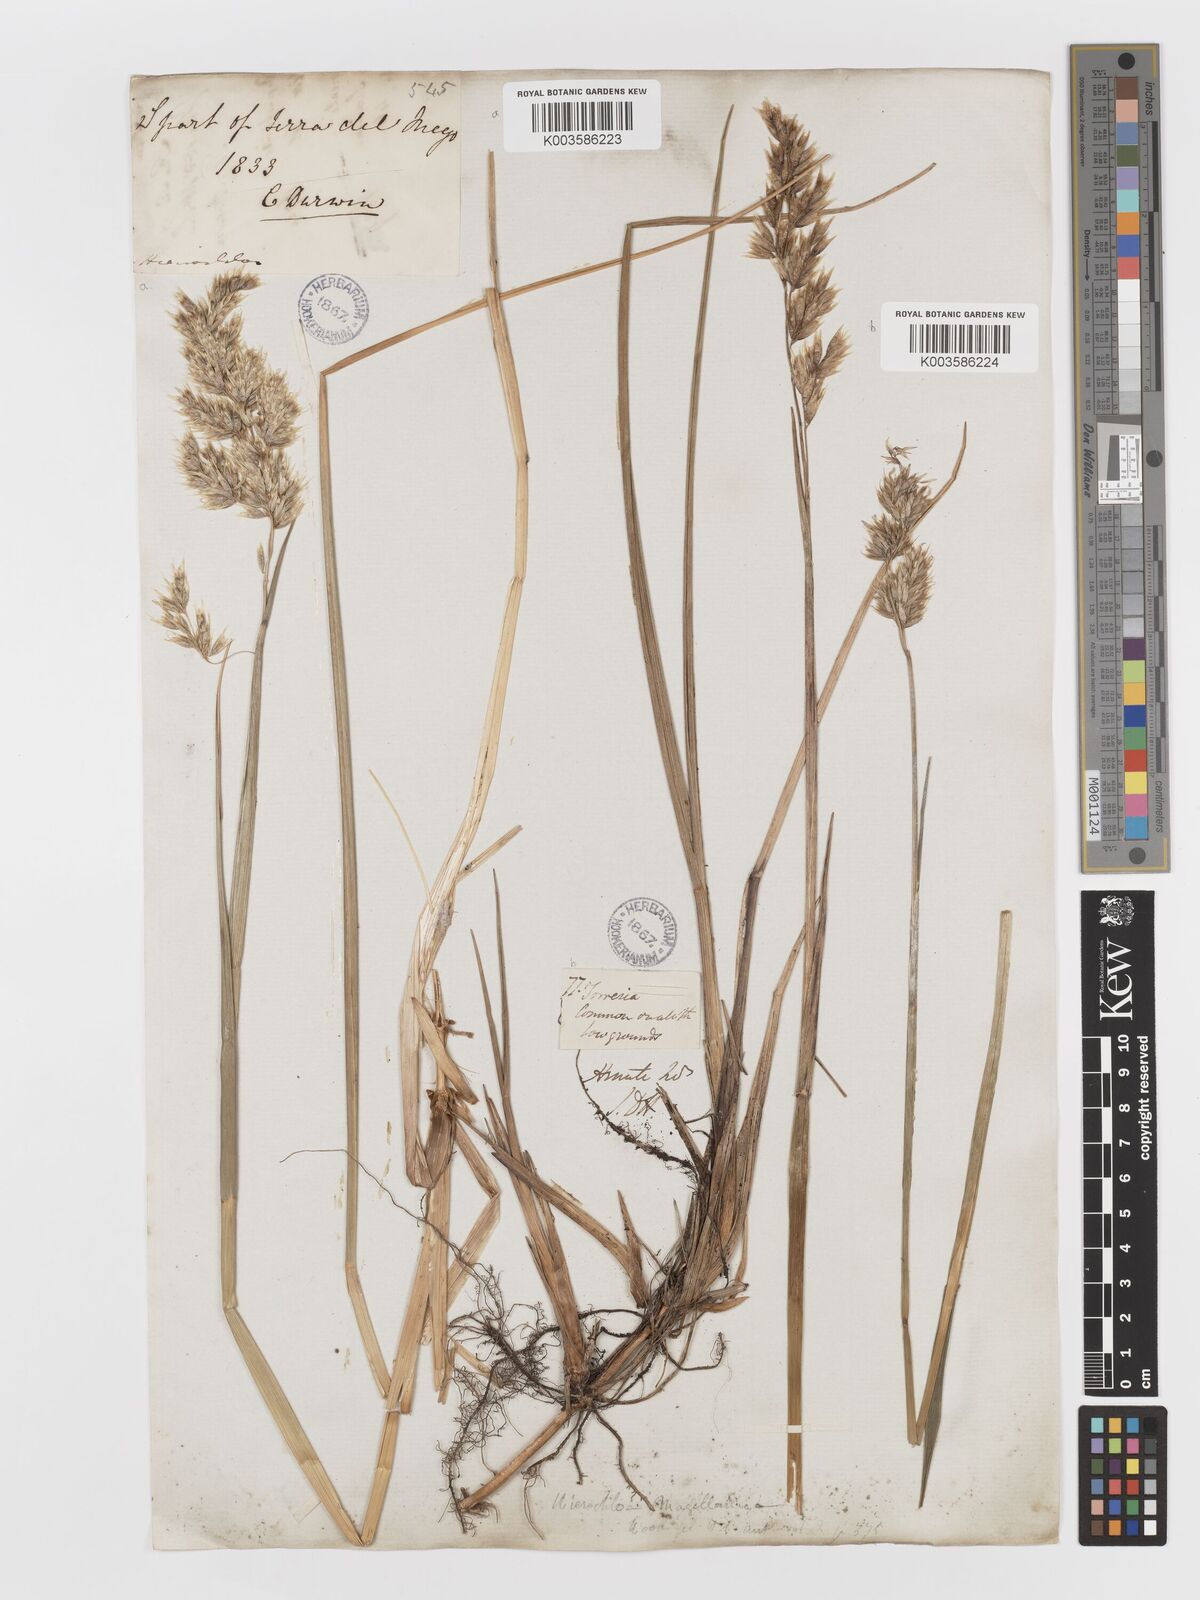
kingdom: Plantae
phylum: Tracheophyta
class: Liliopsida
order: Poales
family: Poaceae
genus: Anthoxanthum
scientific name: Anthoxanthum redolens
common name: Sweet holy grass
